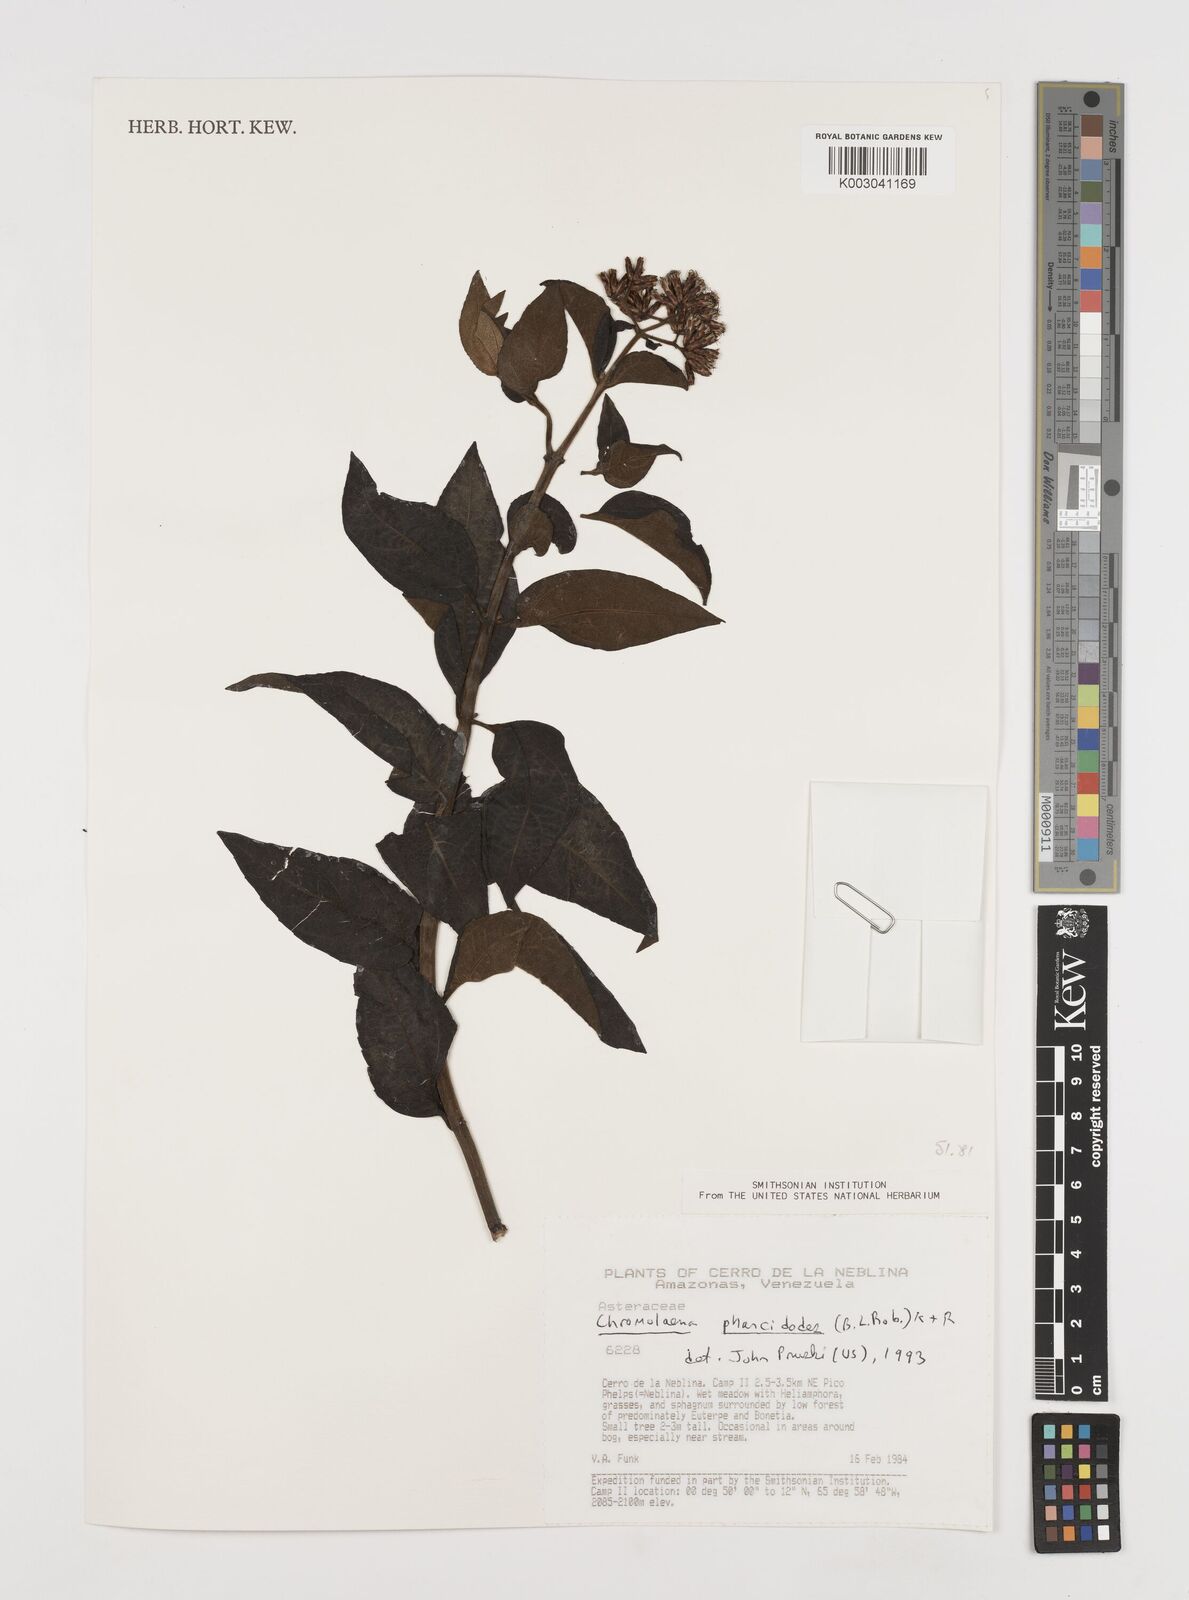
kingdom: Plantae
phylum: Tracheophyta
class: Magnoliopsida
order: Asterales
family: Asteraceae
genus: Chromolaena
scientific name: Chromolaena pharcidodes
